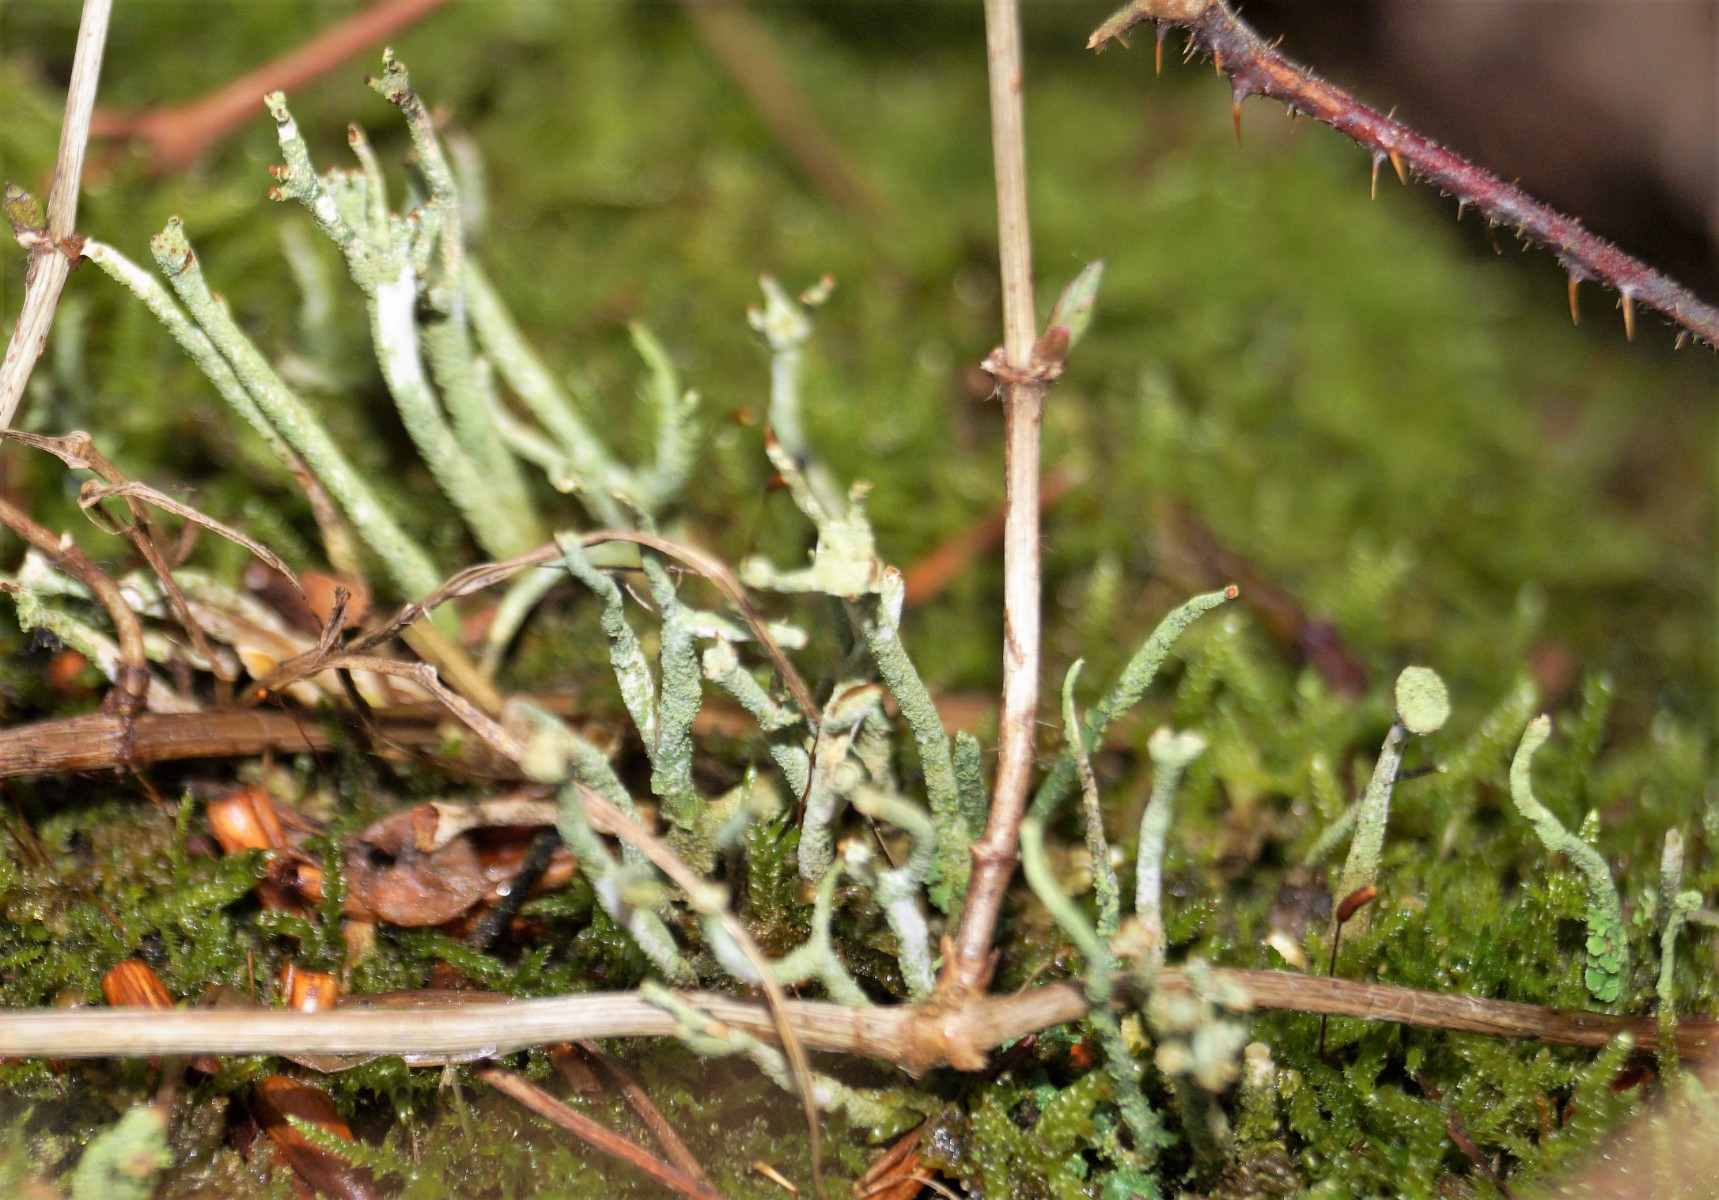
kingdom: Fungi
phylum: Ascomycota
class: Lecanoromycetes
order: Lecanorales
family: Cladoniaceae
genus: Cladonia
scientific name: Cladonia
